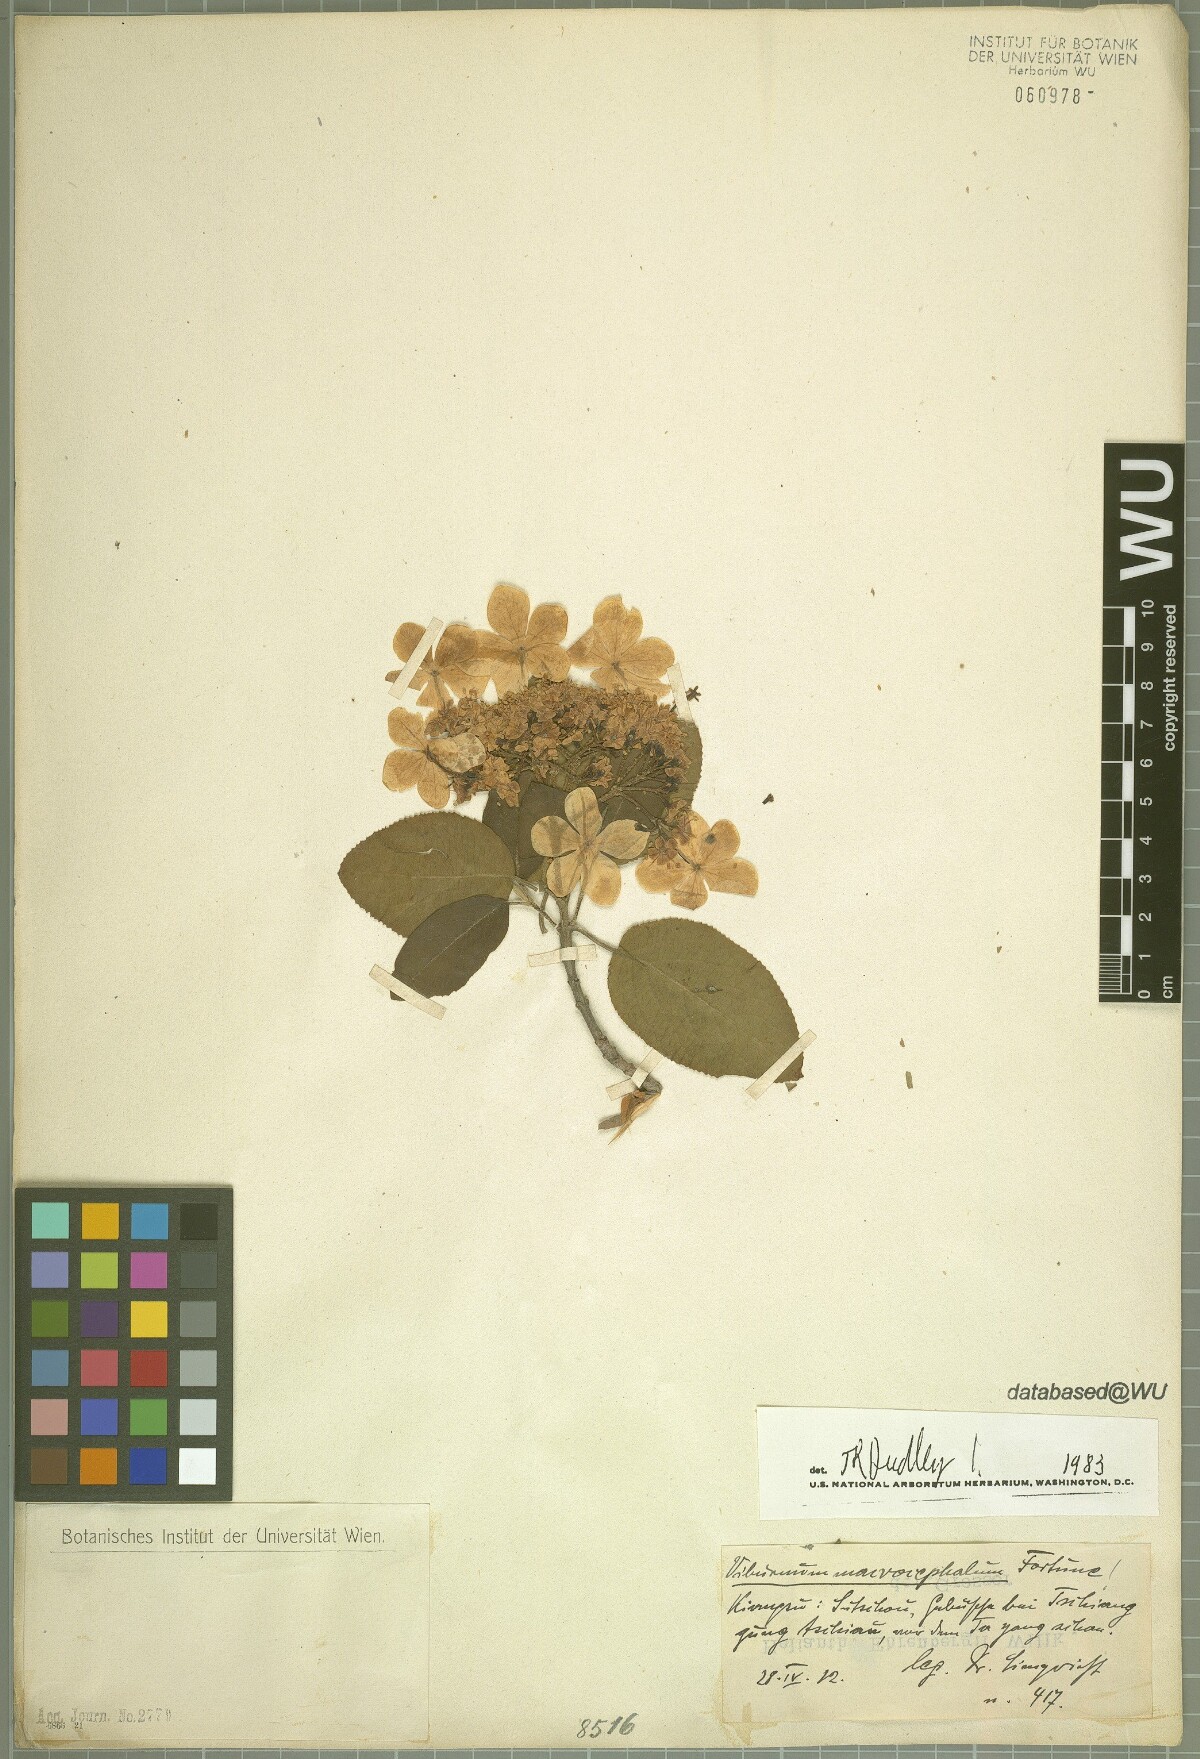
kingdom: Plantae
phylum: Tracheophyta
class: Magnoliopsida
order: Dipsacales
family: Viburnaceae
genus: Viburnum
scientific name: Viburnum macrocephalum
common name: Chinese snowball viburnum
